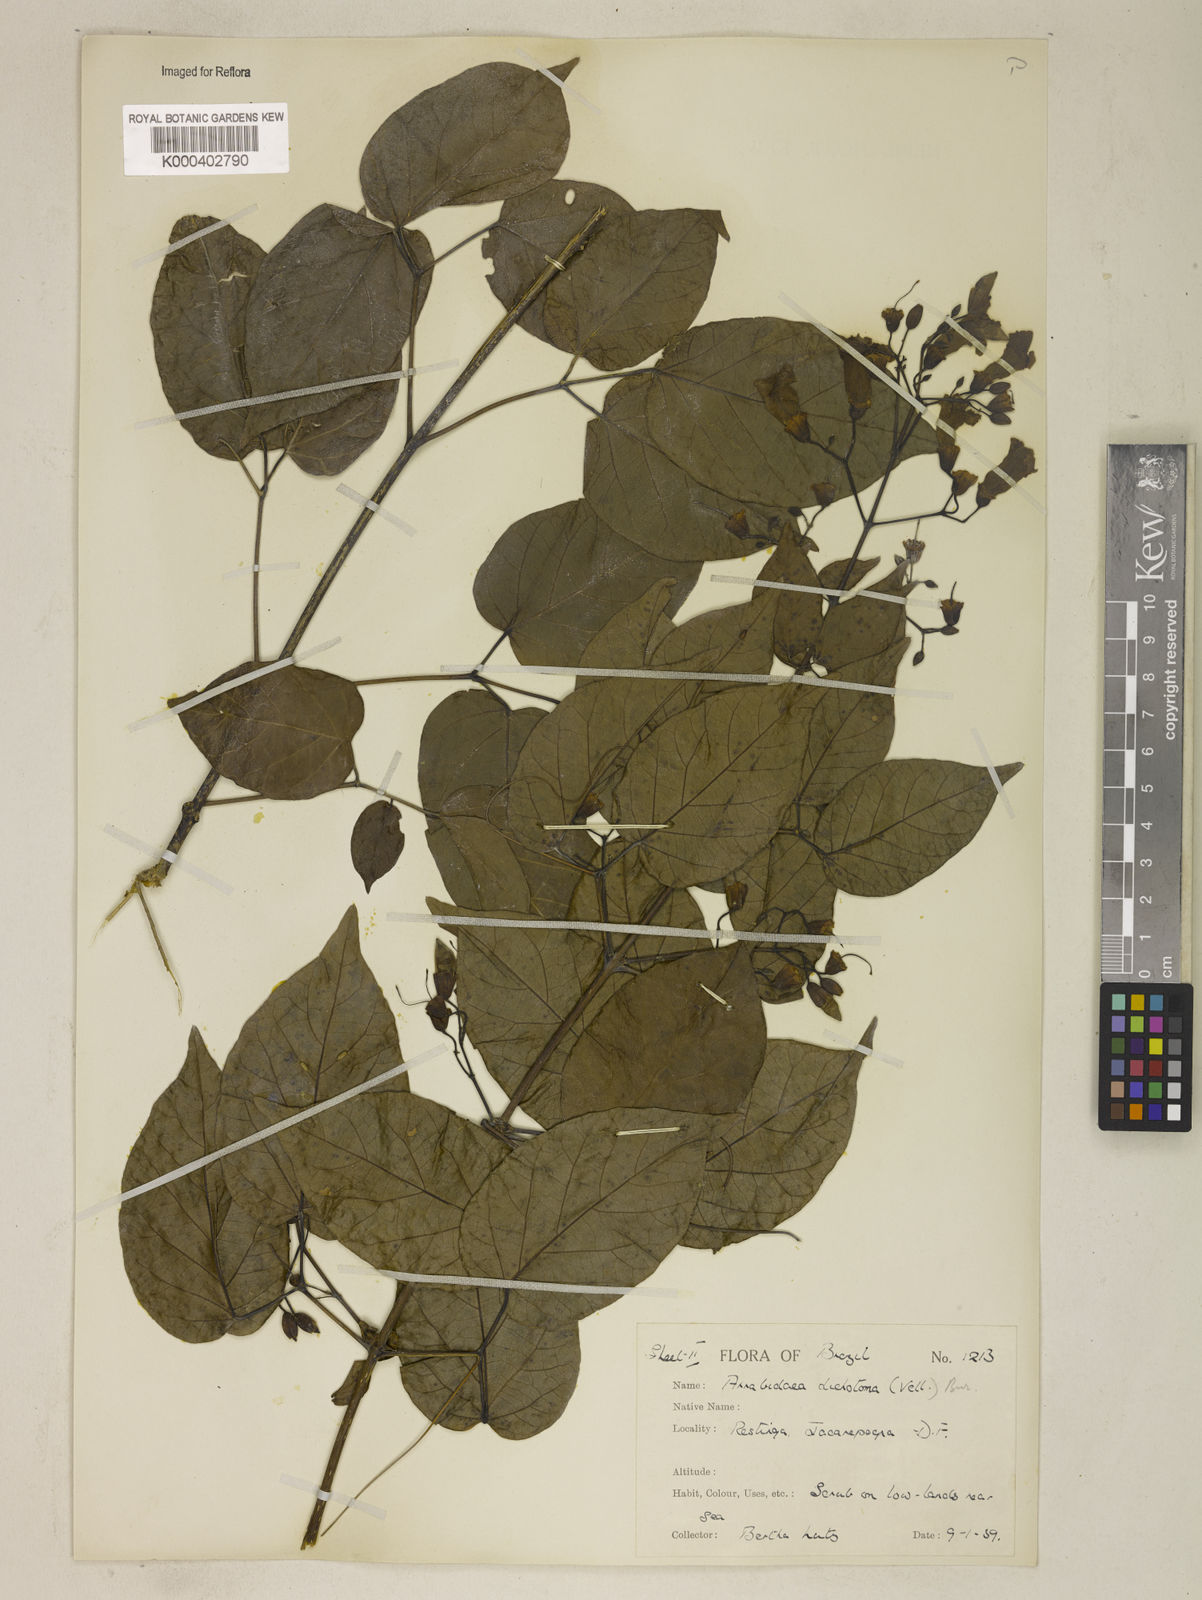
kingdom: Plantae
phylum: Tracheophyta
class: Magnoliopsida
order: Lamiales
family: Bignoniaceae
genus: Tanaecium
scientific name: Tanaecium selloi
